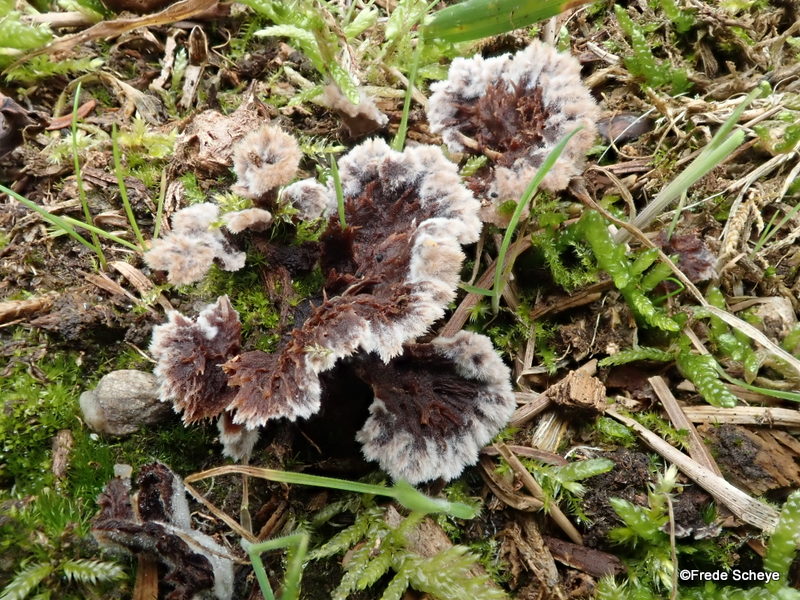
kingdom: Fungi
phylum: Basidiomycota
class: Agaricomycetes
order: Thelephorales
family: Thelephoraceae
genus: Thelephora
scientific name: Thelephora terrestris
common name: fliget frynsesvamp
